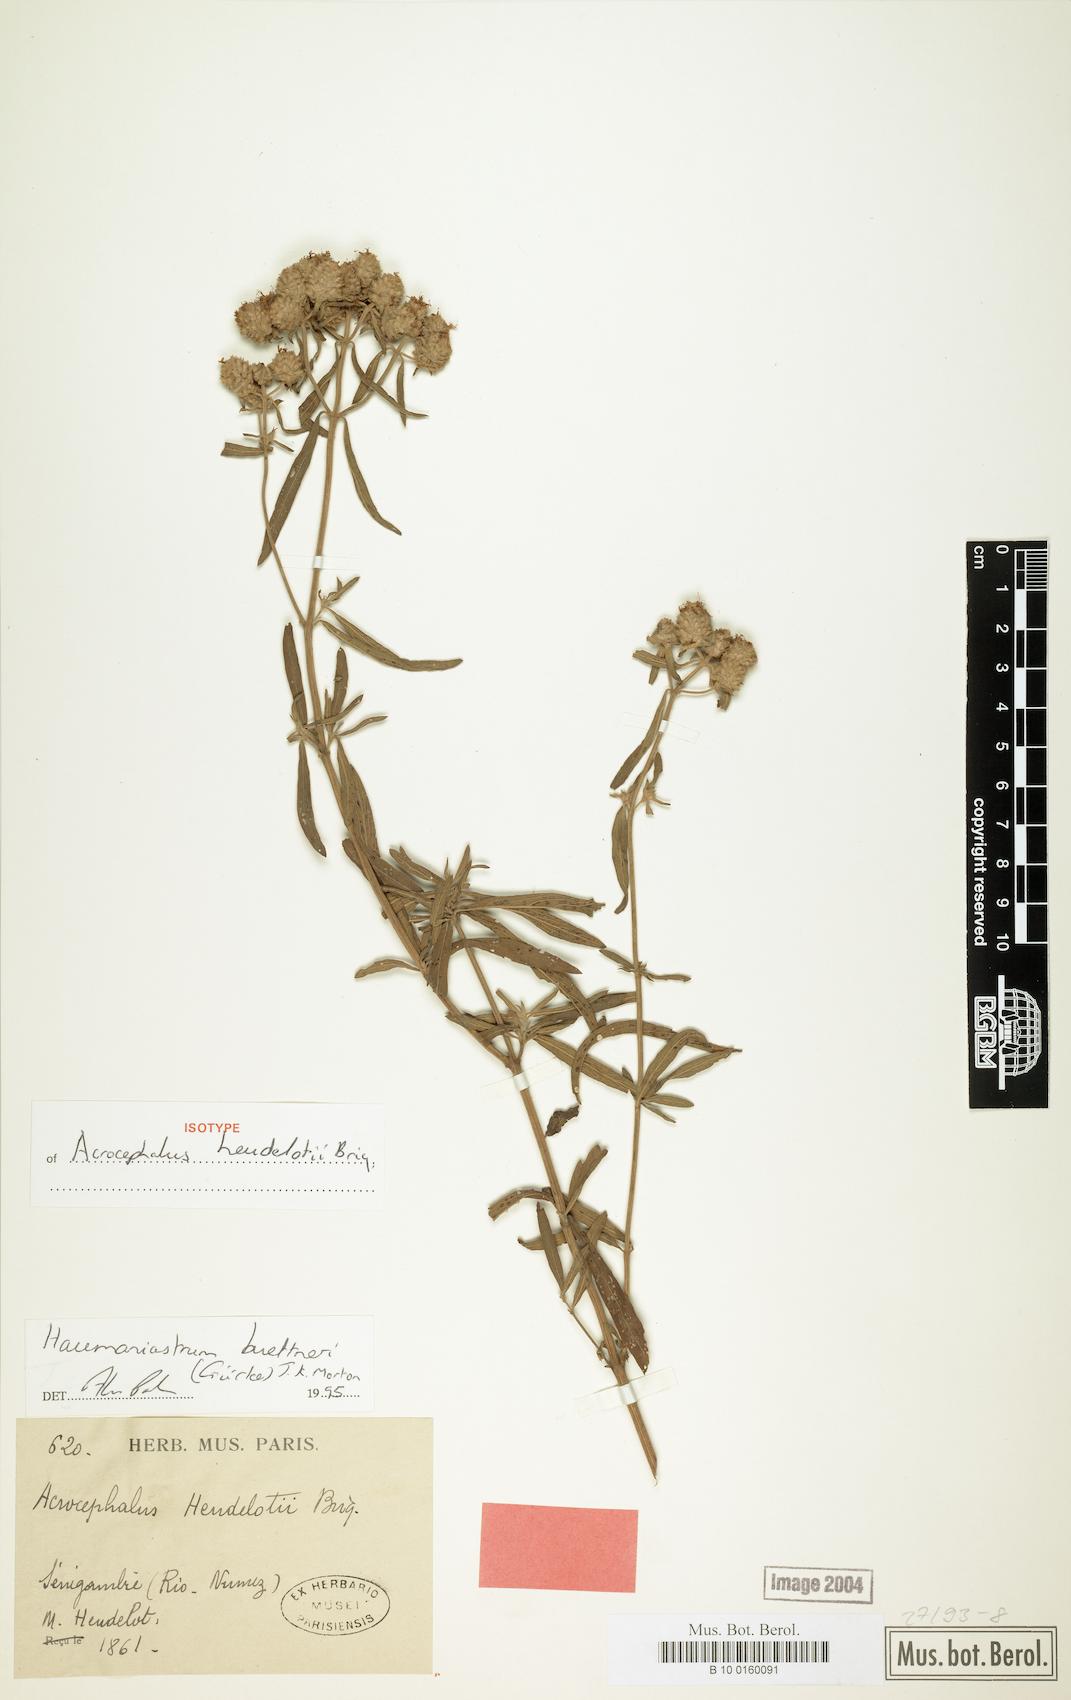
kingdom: Plantae
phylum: Tracheophyta
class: Magnoliopsida
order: Lamiales
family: Lamiaceae
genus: Haumaniastrum
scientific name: Haumaniastrum buettneri
